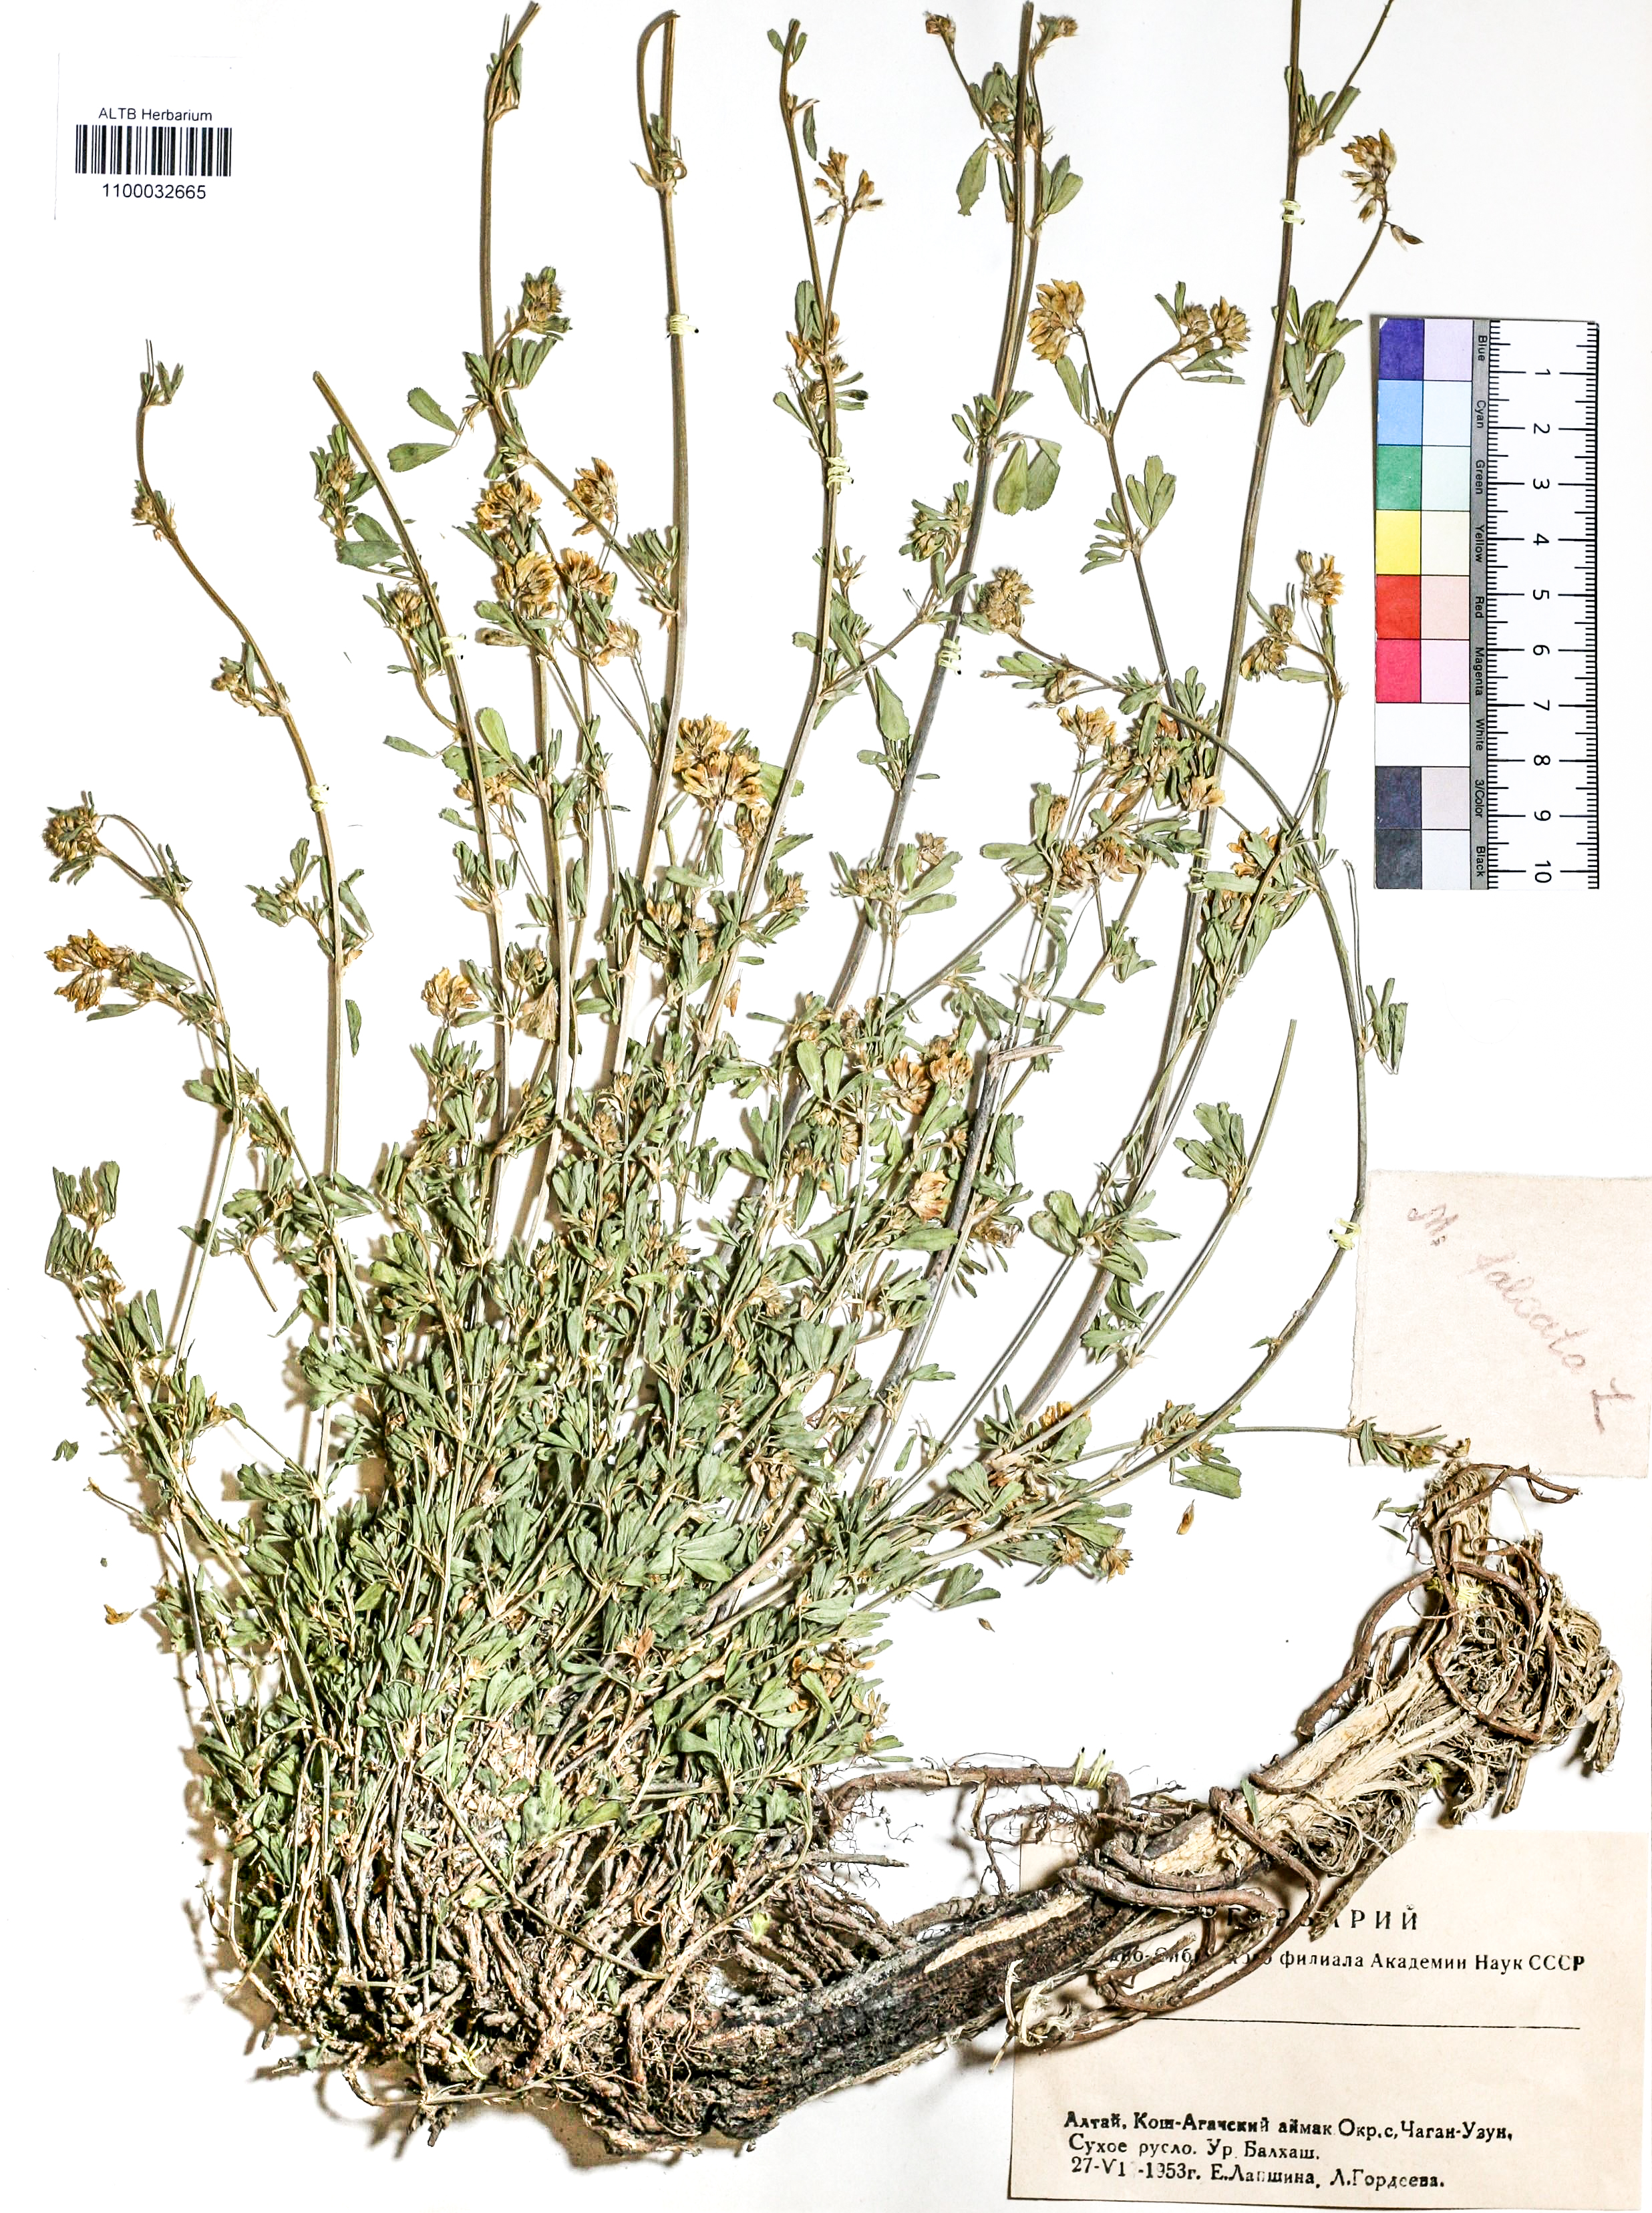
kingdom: Plantae
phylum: Tracheophyta
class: Magnoliopsida
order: Fabales
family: Fabaceae
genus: Medicago
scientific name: Medicago falcata
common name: Sickle medick
